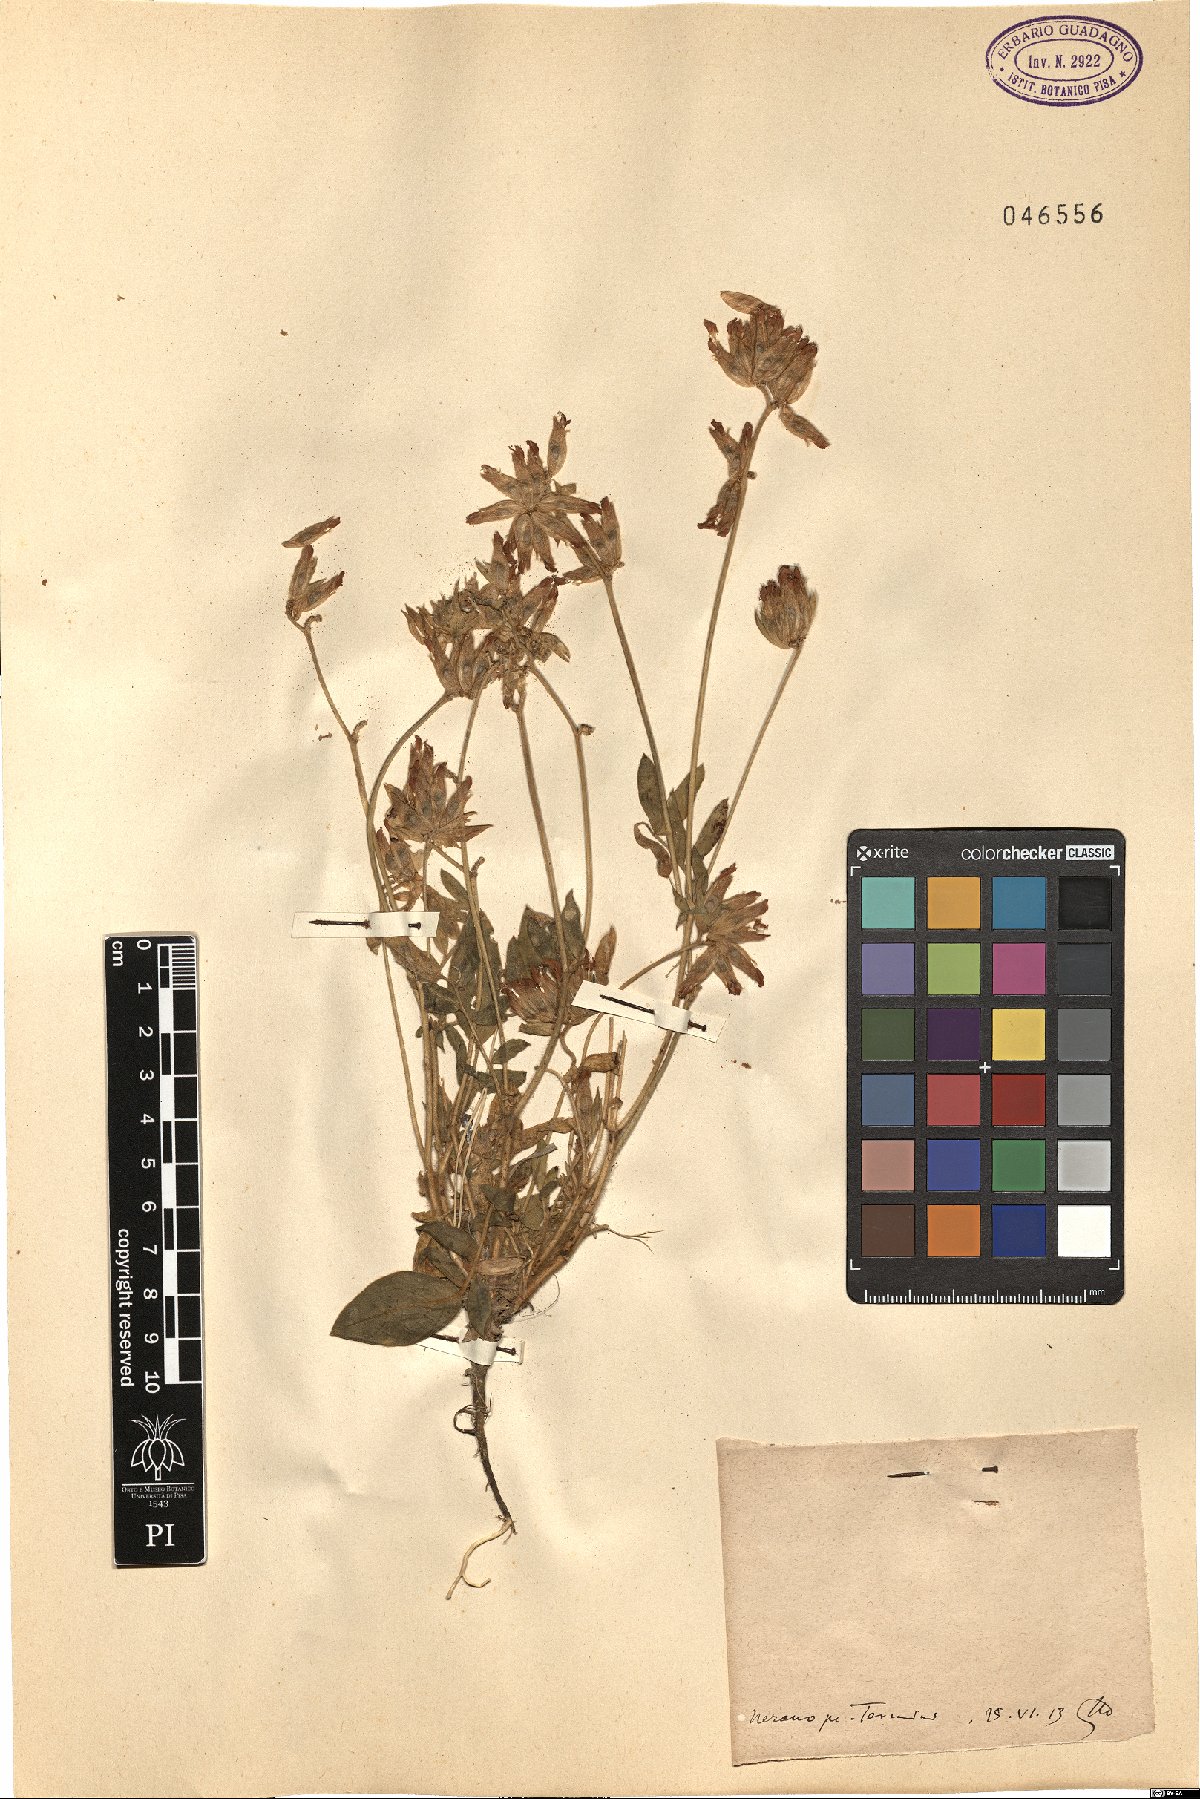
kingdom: Plantae
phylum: Tracheophyta
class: Magnoliopsida
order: Fabales
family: Fabaceae
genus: Anthyllis
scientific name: Anthyllis
